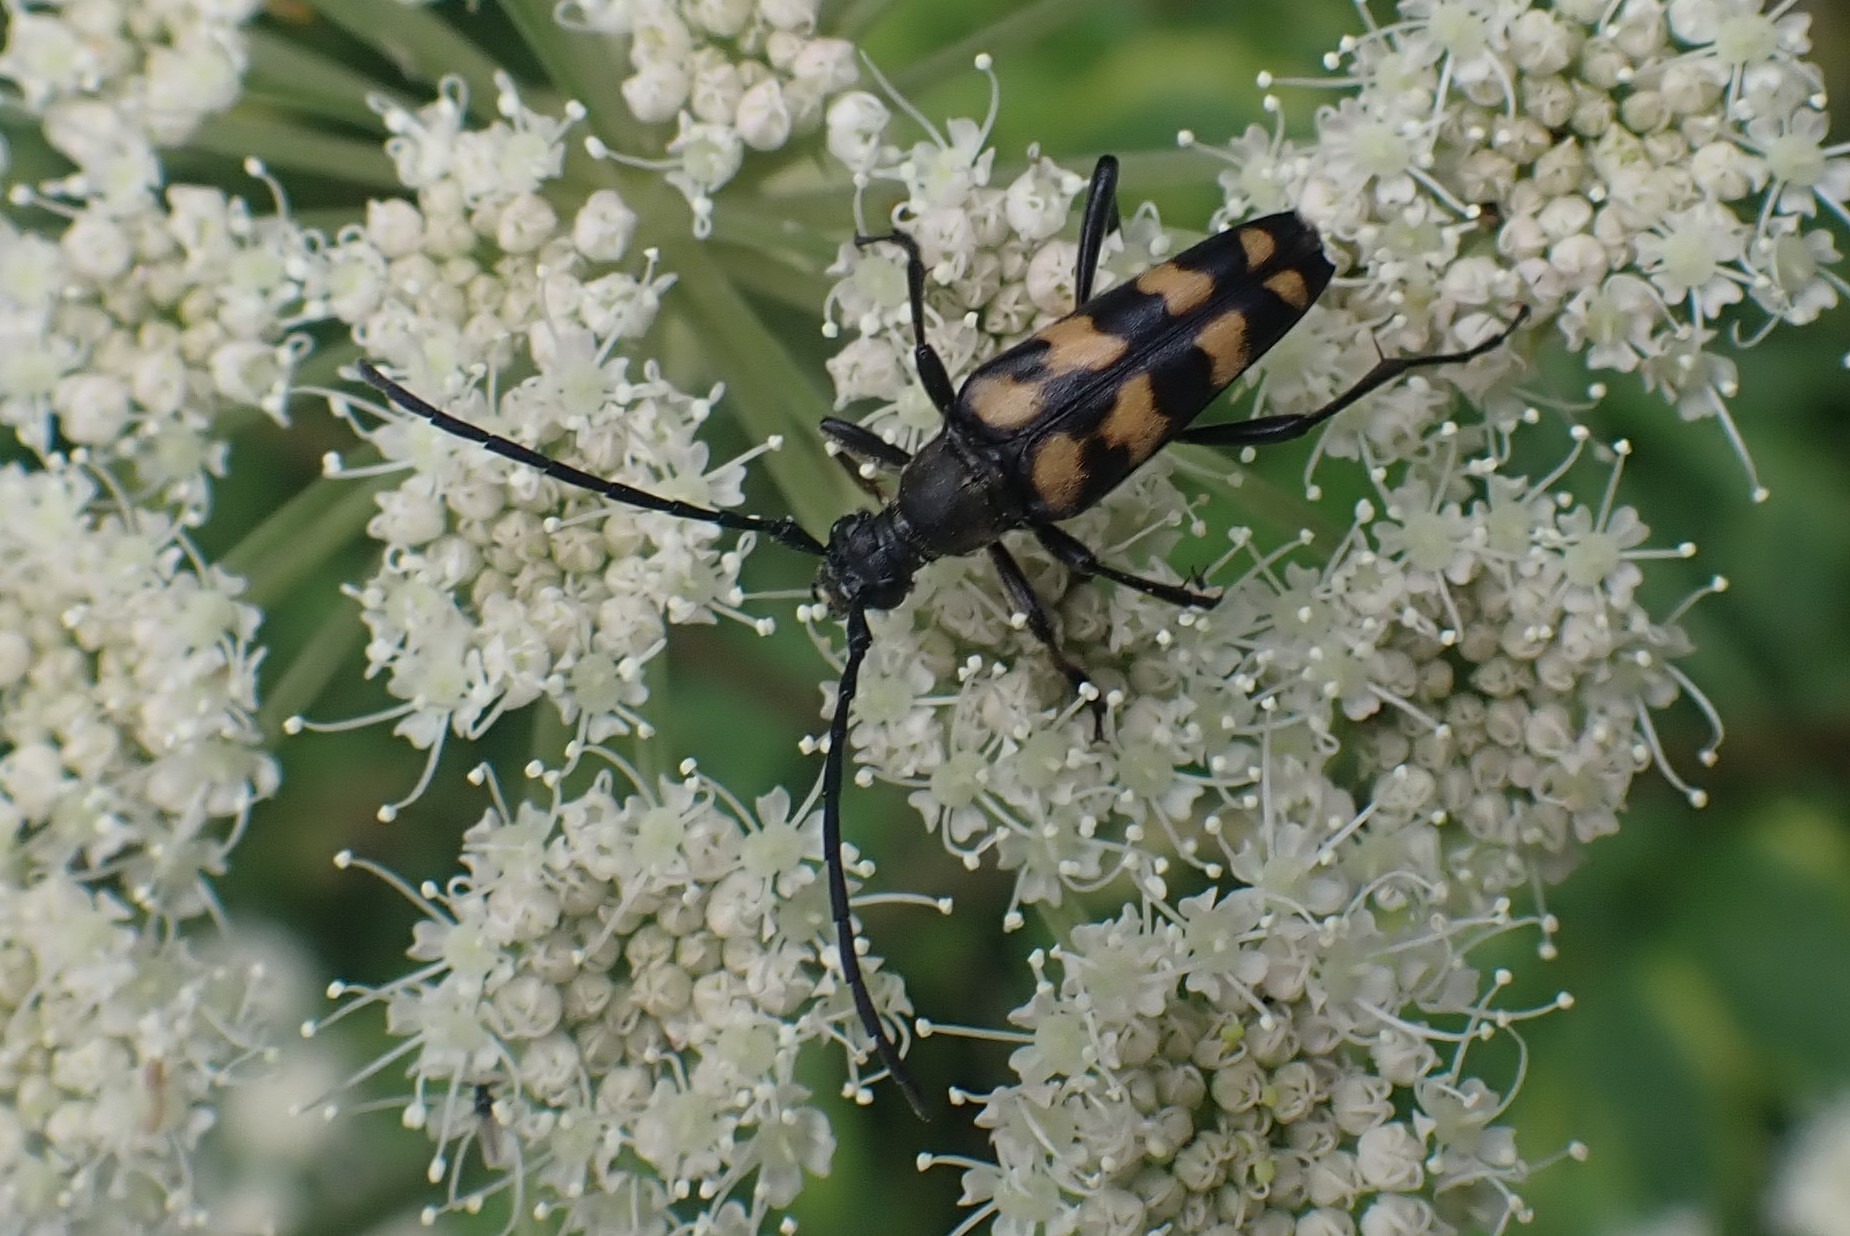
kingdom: Animalia
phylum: Arthropoda
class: Insecta
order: Coleoptera
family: Cerambycidae
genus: Leptura
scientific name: Leptura quadrifasciata
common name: Firebåndet blomsterbuk
